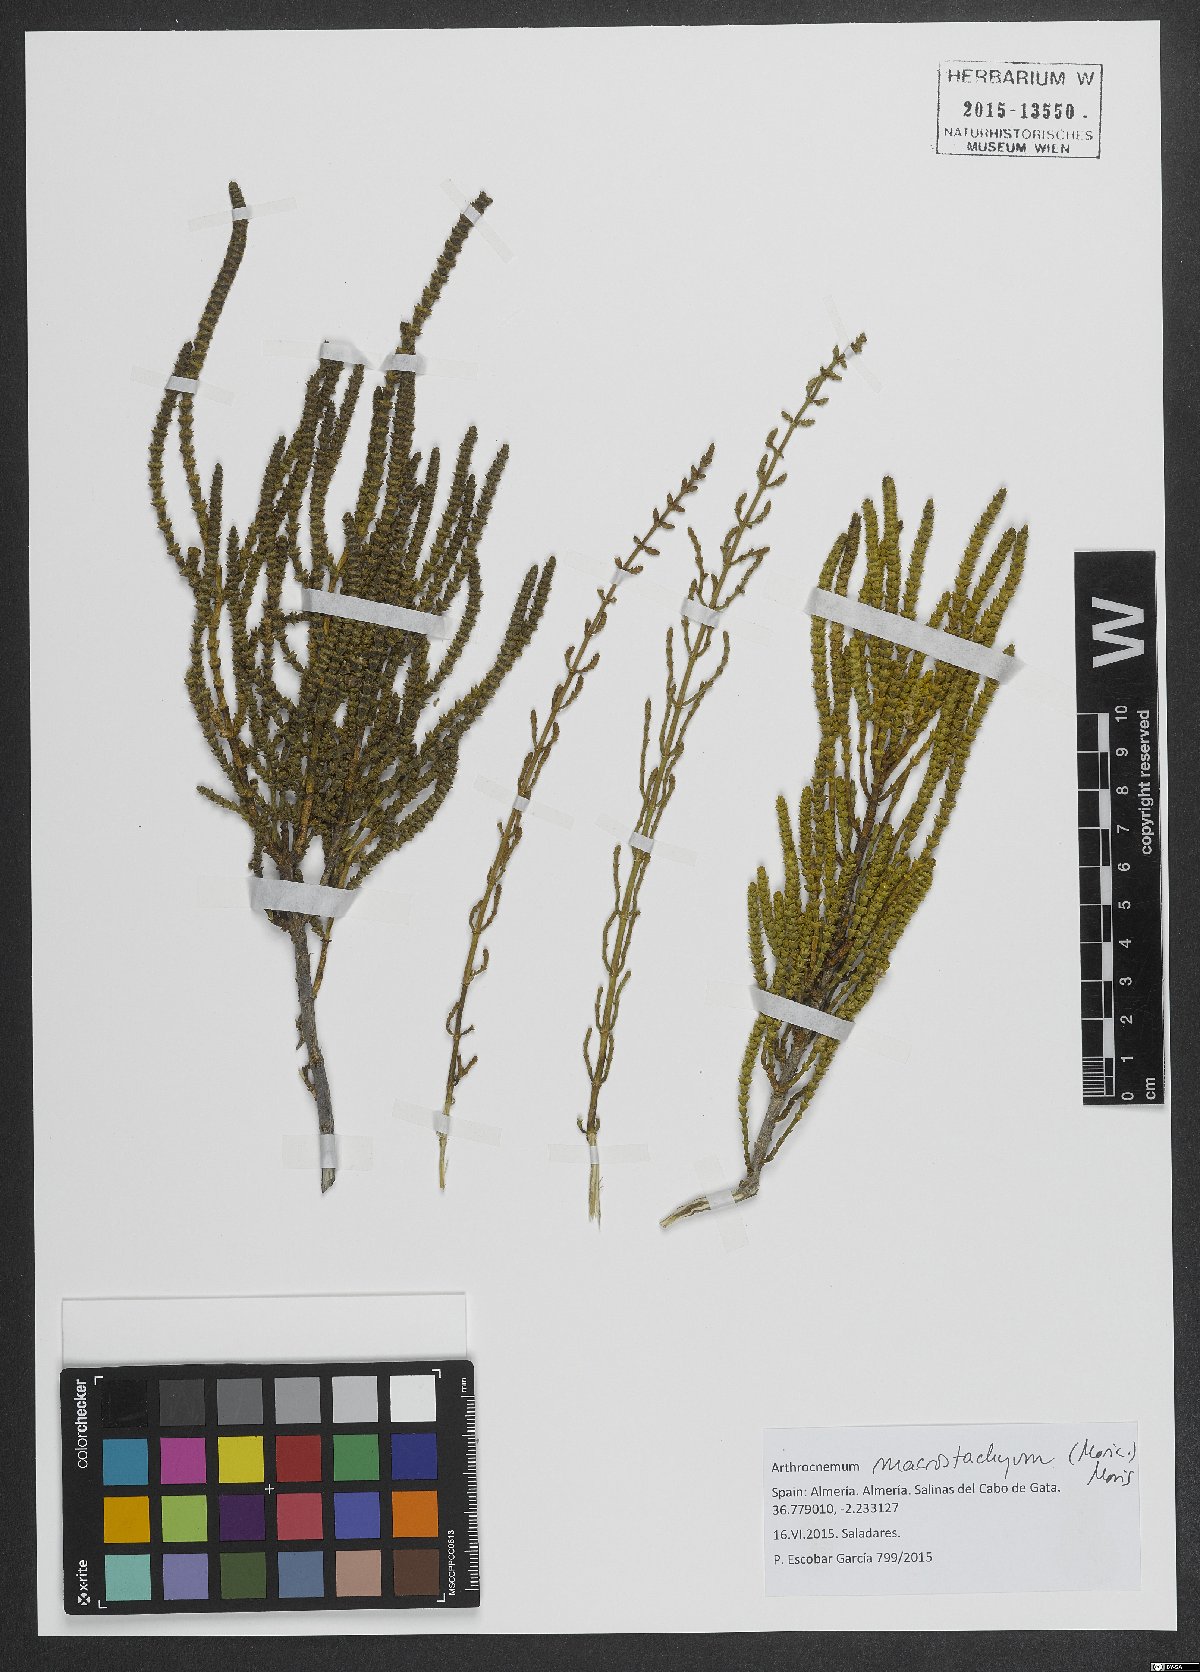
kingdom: Plantae
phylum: Tracheophyta
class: Magnoliopsida
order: Caryophyllales
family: Amaranthaceae
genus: Arthrocaulon
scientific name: Arthrocaulon macrostachyum
